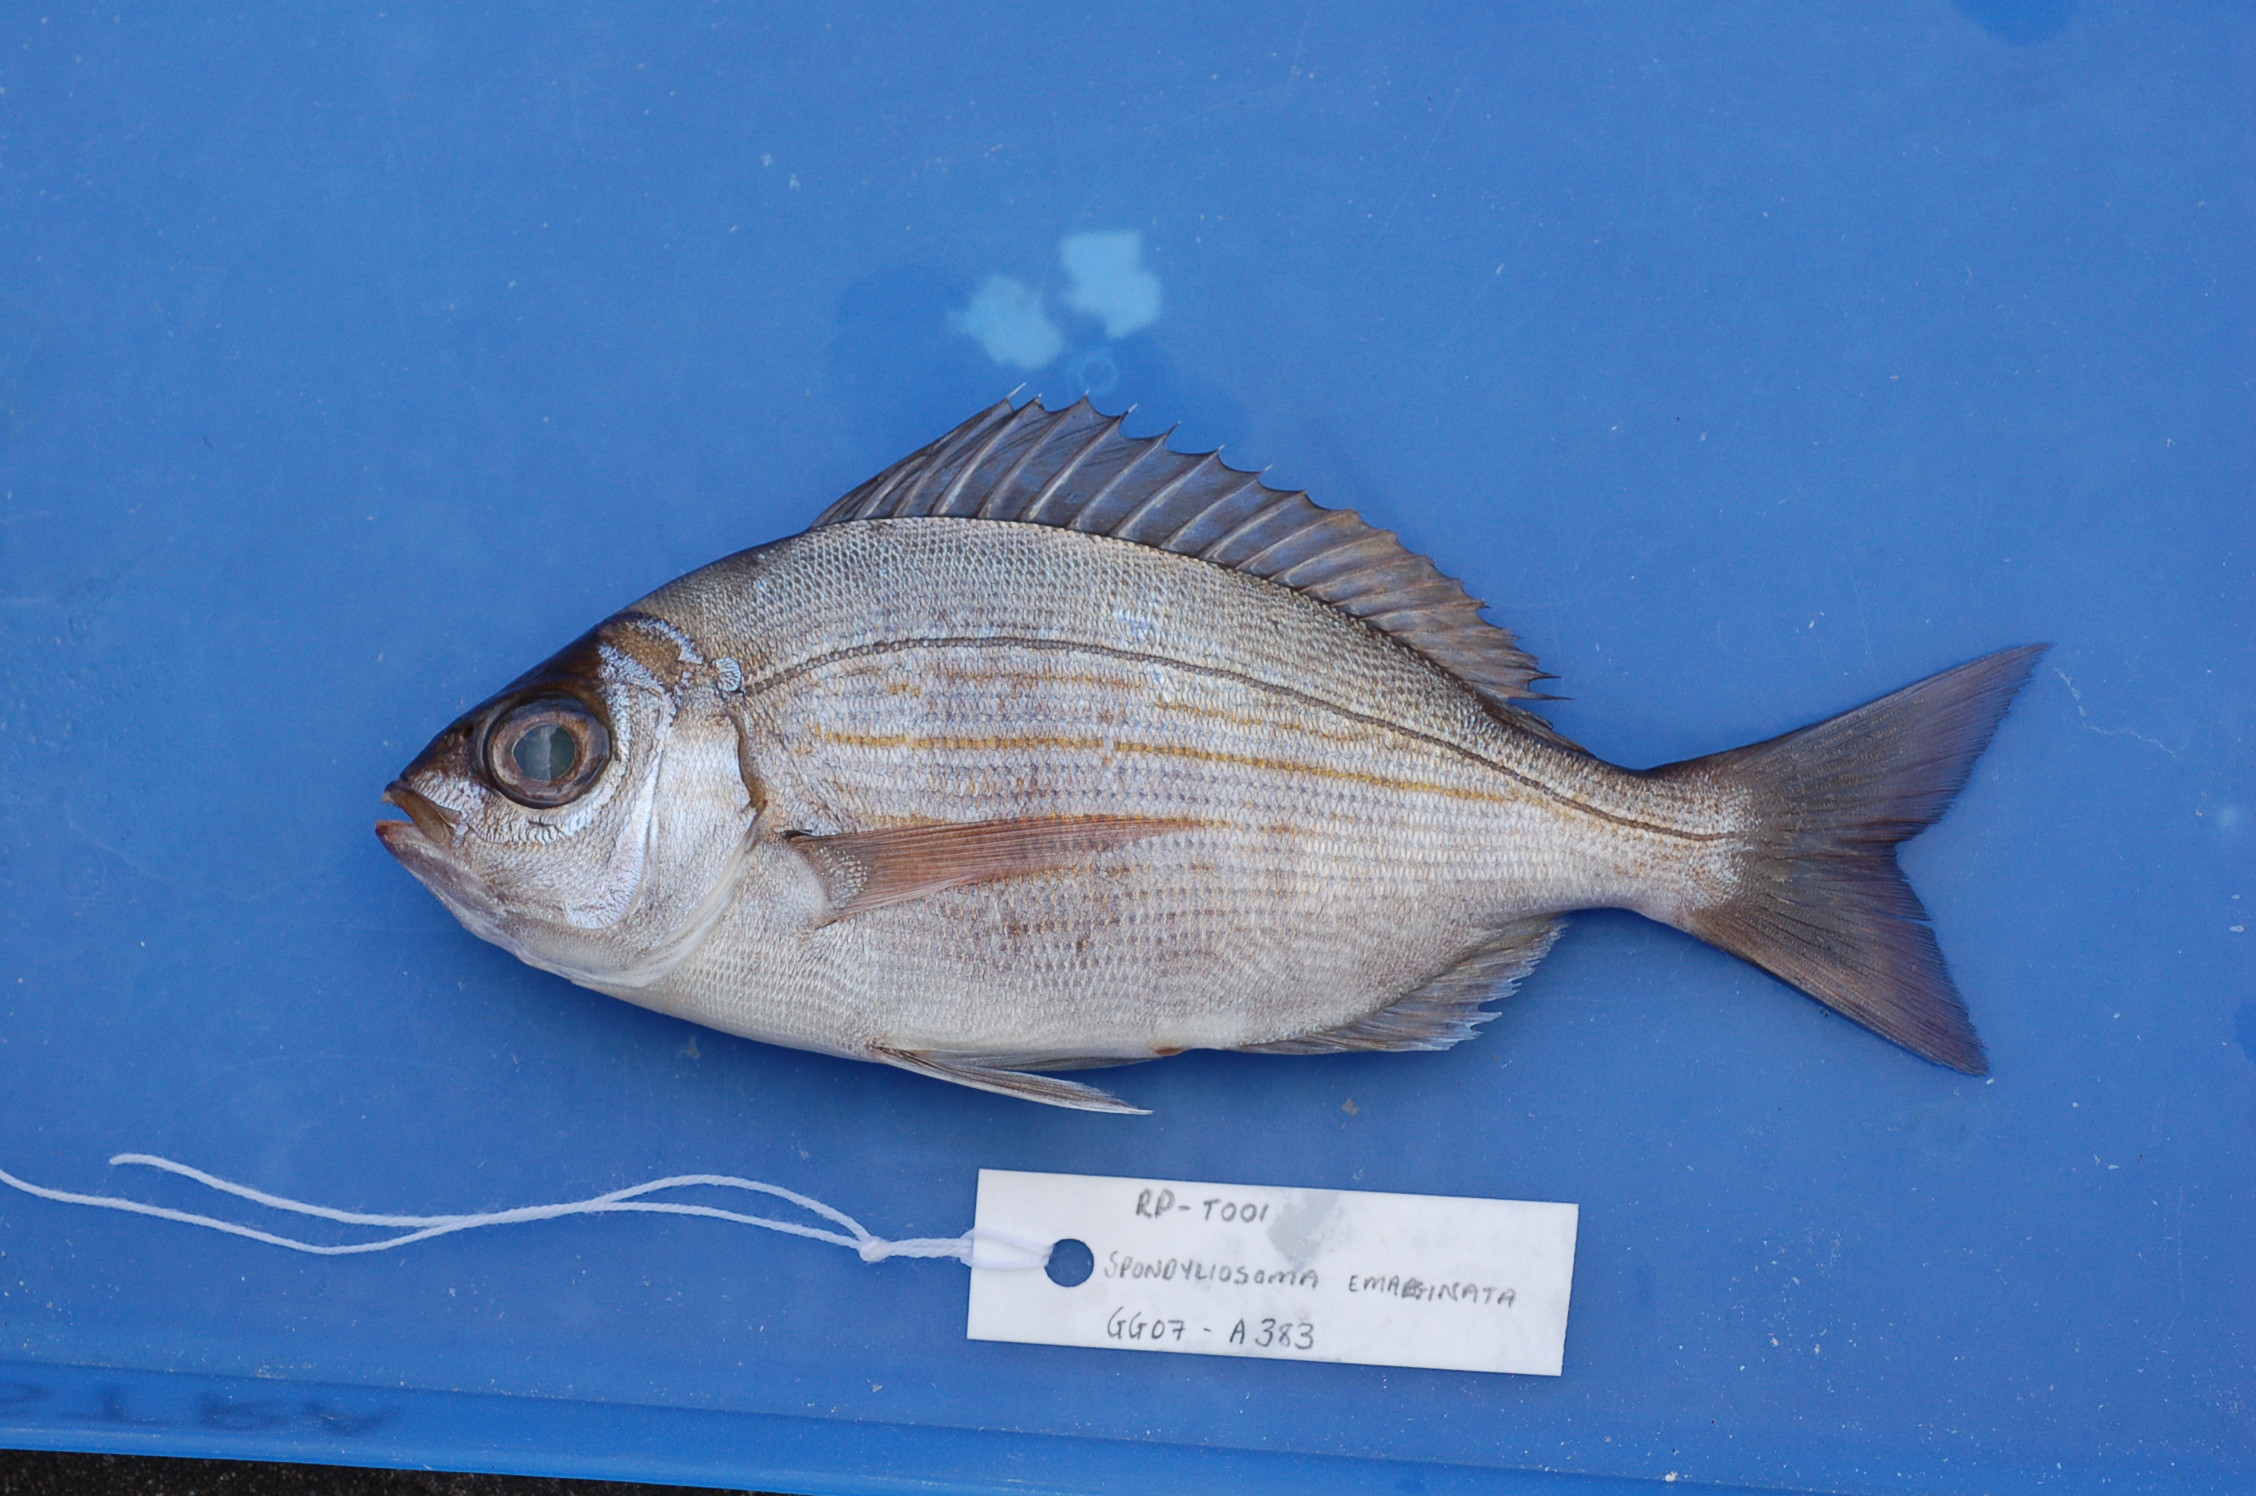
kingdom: Animalia
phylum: Chordata
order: Perciformes
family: Sparidae
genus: Spondyliosoma
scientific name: Spondyliosoma emarginatum
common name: Steentje seabream
